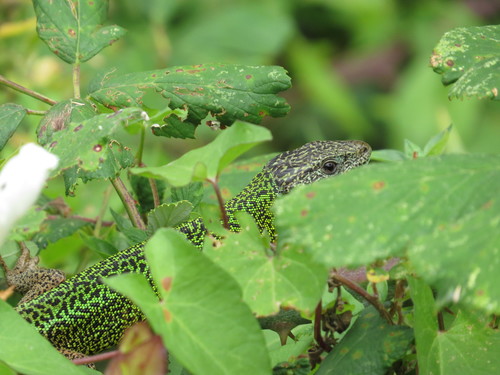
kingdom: Animalia
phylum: Chordata
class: Squamata
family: Lacertidae
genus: Lacerta
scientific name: Lacerta schreiberi
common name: Iberian emerald lizard
